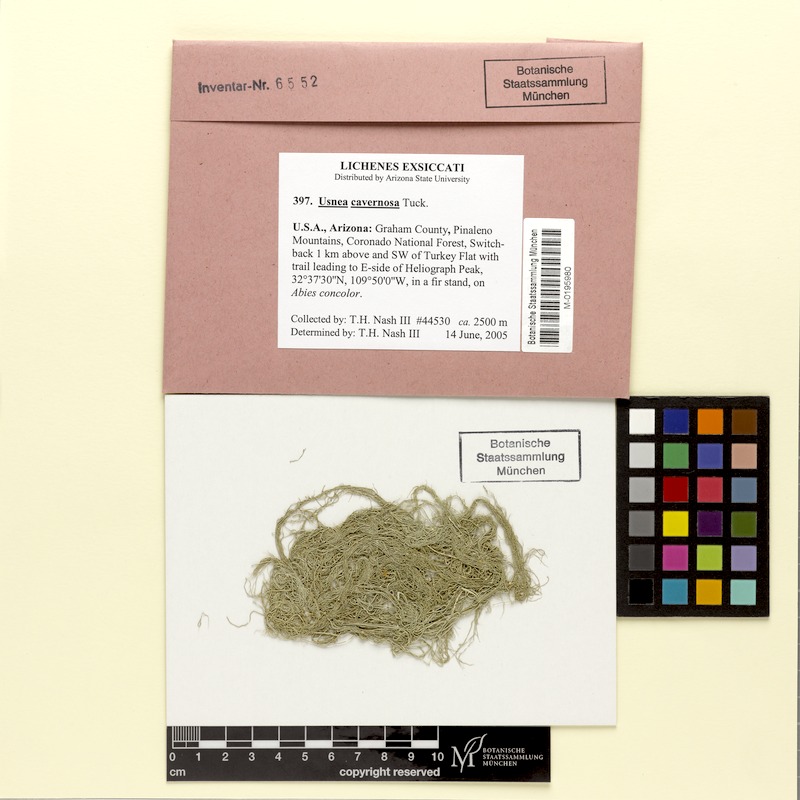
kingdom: Fungi
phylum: Ascomycota
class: Lecanoromycetes
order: Lecanorales
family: Parmeliaceae
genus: Usnea
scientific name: Usnea cavernosa
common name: Pitted beard lichen
